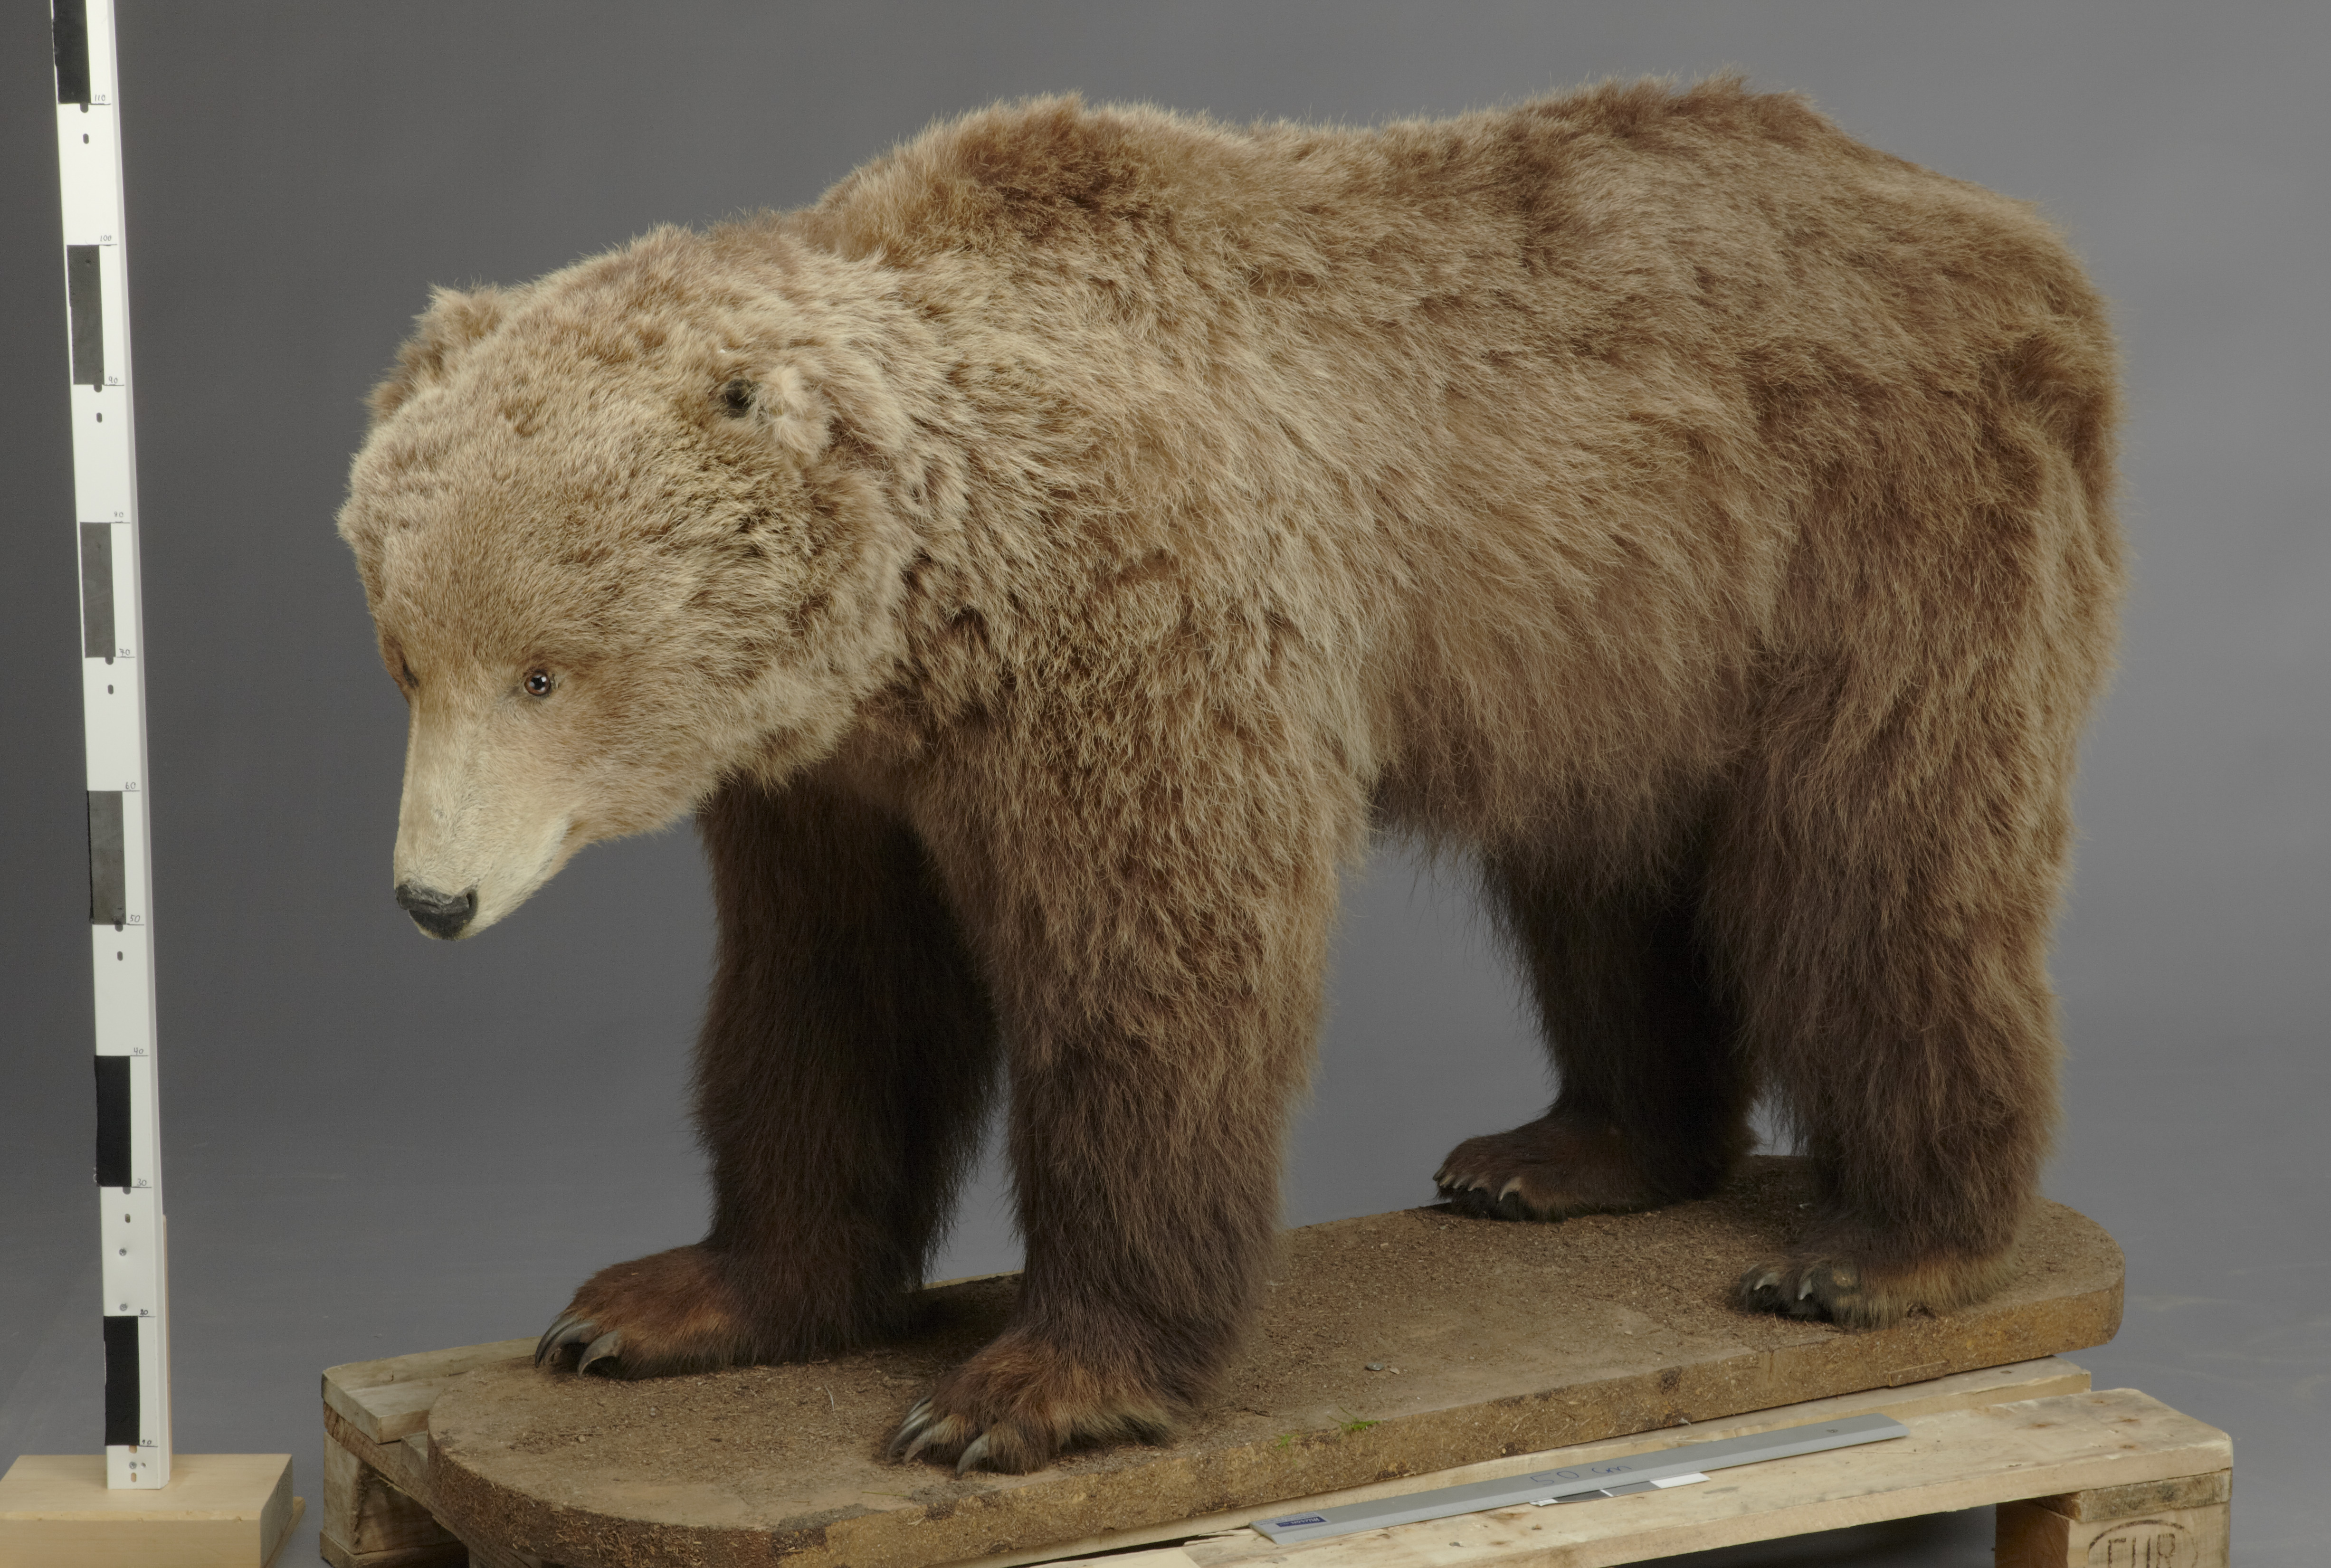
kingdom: Animalia
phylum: Chordata
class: Mammalia
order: Carnivora
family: Ursidae
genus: Ursus
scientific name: Ursus arctos
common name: Brown bear
